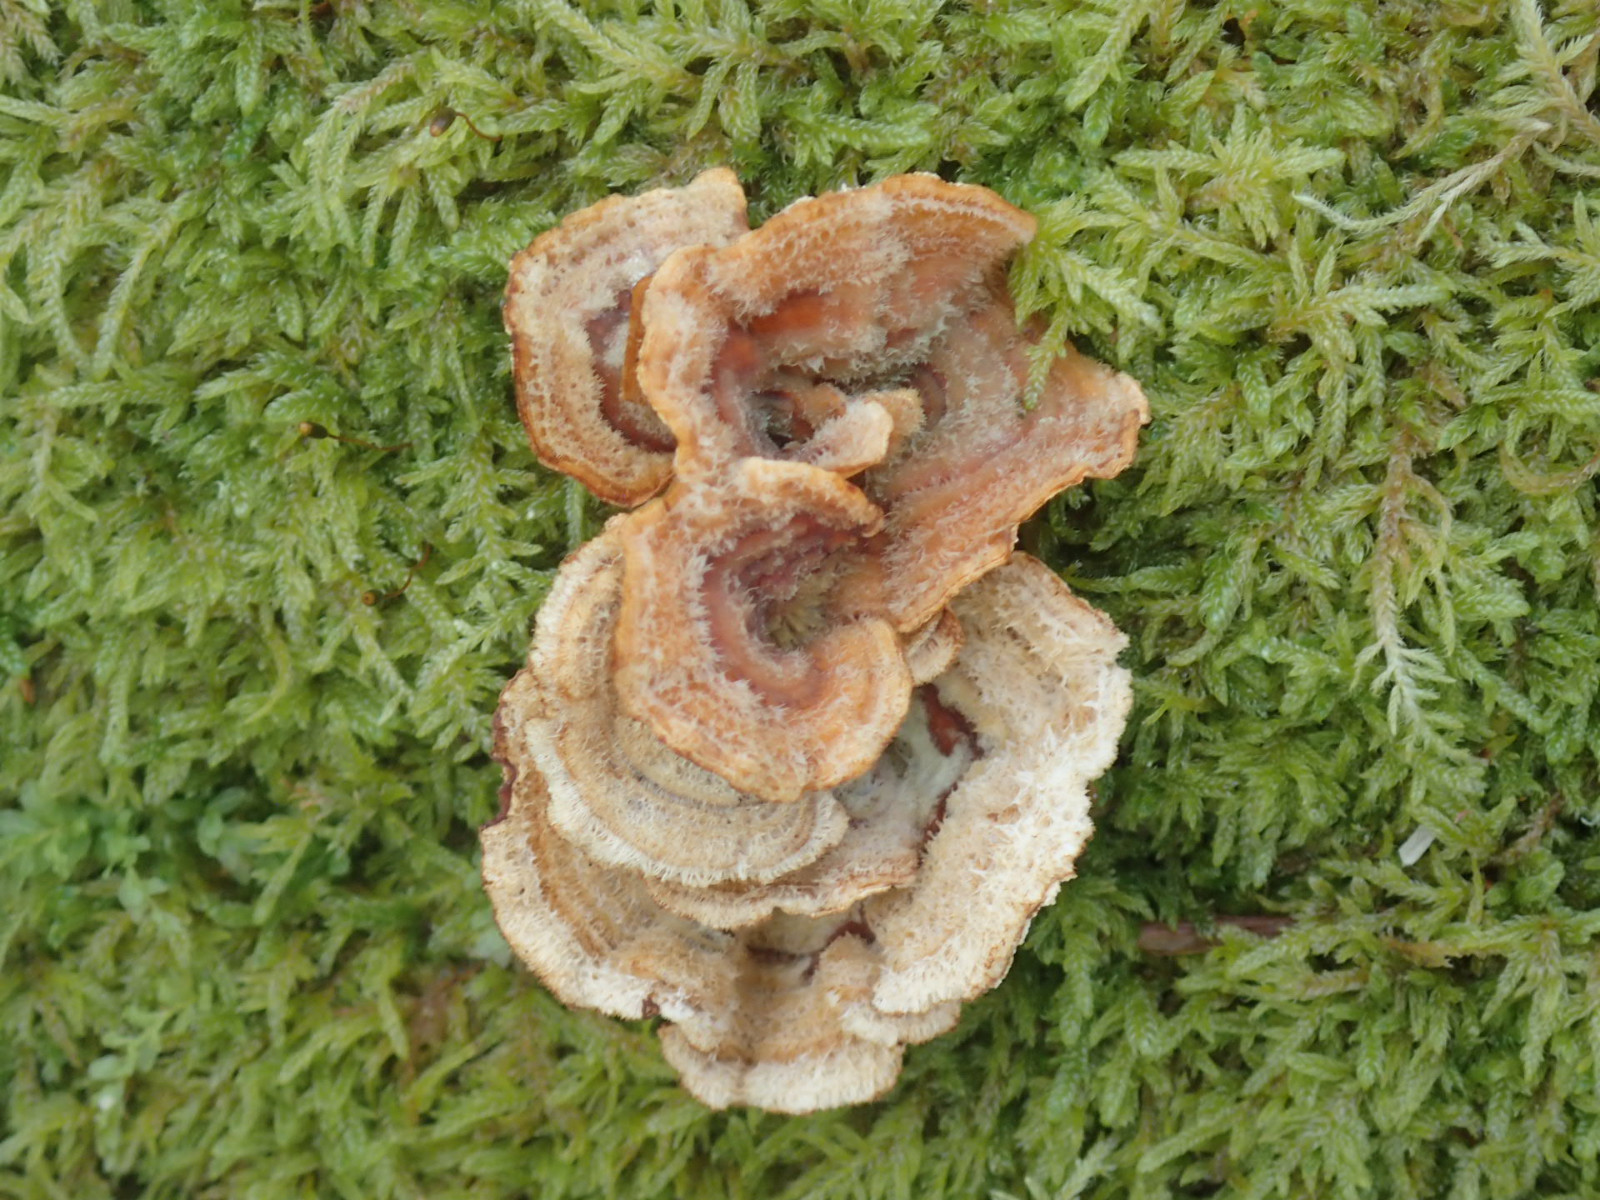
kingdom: Fungi
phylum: Basidiomycota
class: Agaricomycetes
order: Russulales
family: Stereaceae
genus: Stereum
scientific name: Stereum hirsutum
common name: håret lædersvamp
